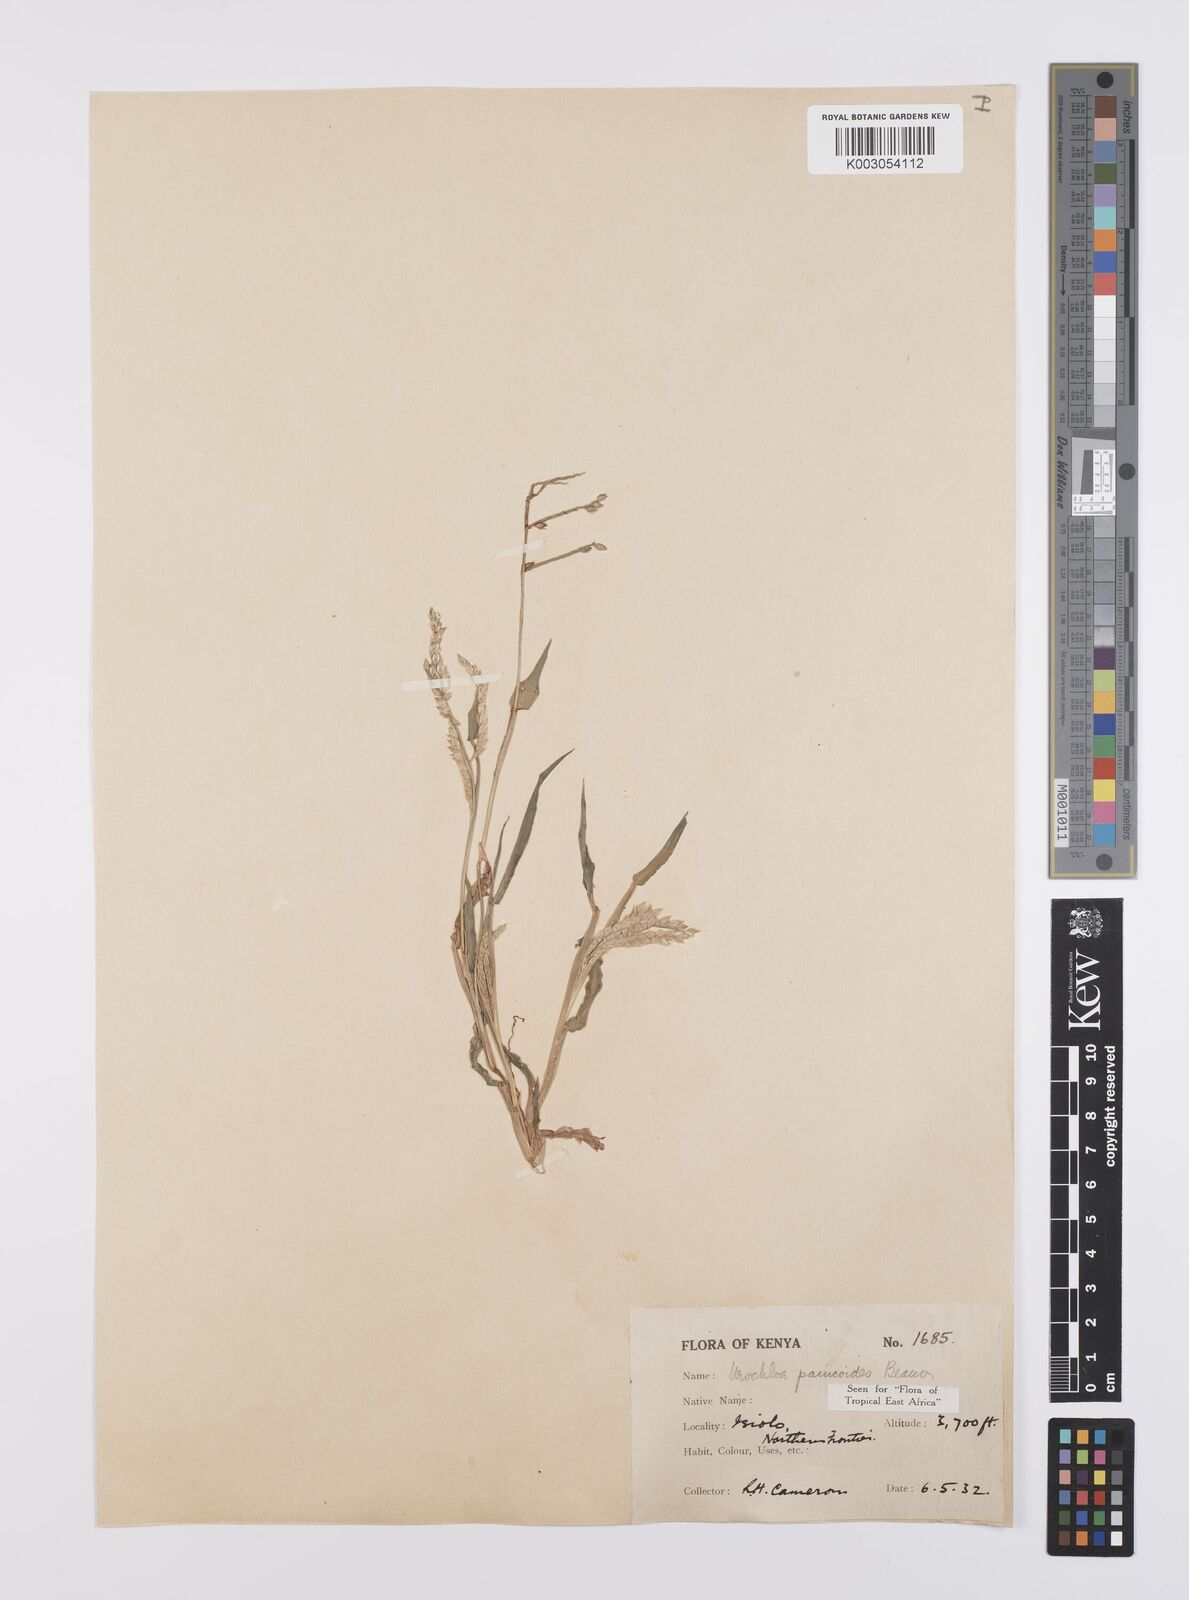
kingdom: Plantae
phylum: Tracheophyta
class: Liliopsida
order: Poales
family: Poaceae
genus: Urochloa
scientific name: Urochloa panicoides
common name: Sharp-flowered signal-grass
